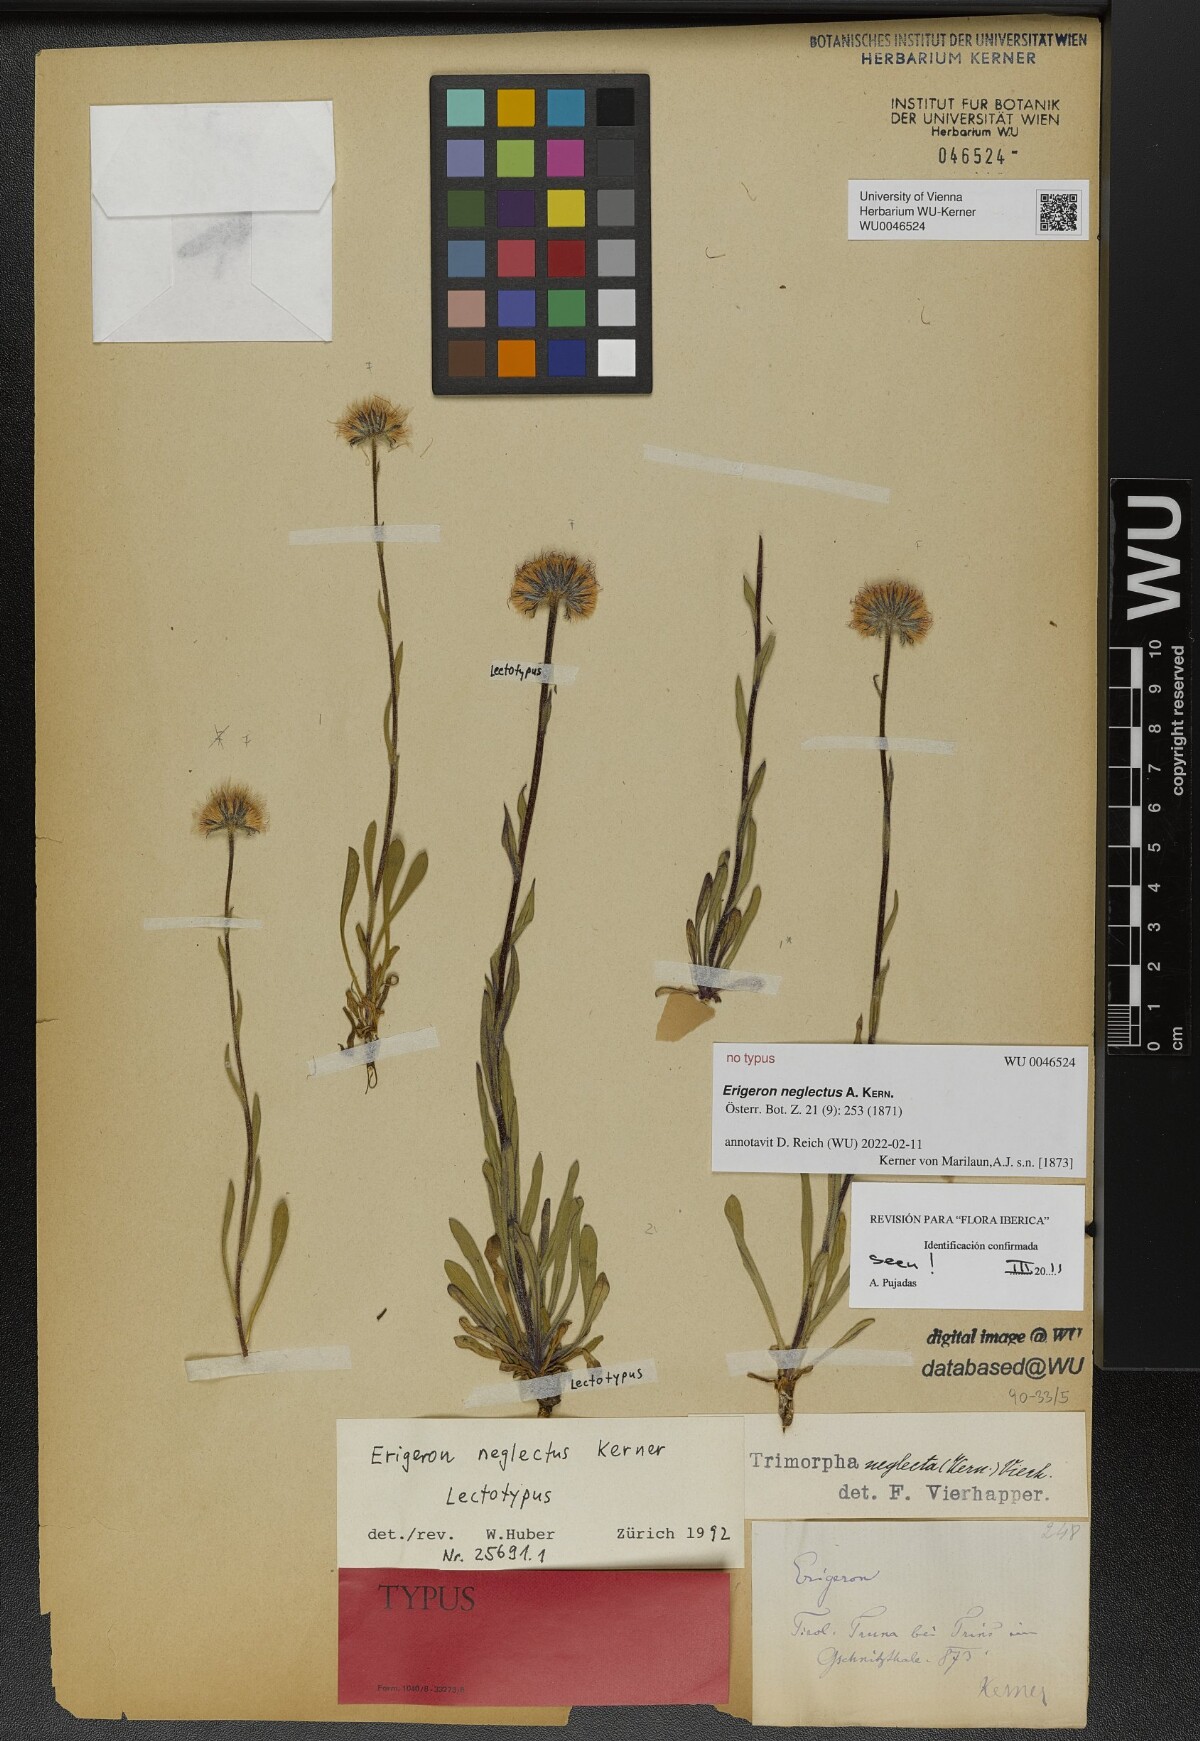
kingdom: Plantae
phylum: Tracheophyta
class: Magnoliopsida
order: Asterales
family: Asteraceae
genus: Erigeron
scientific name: Erigeron neglectus
